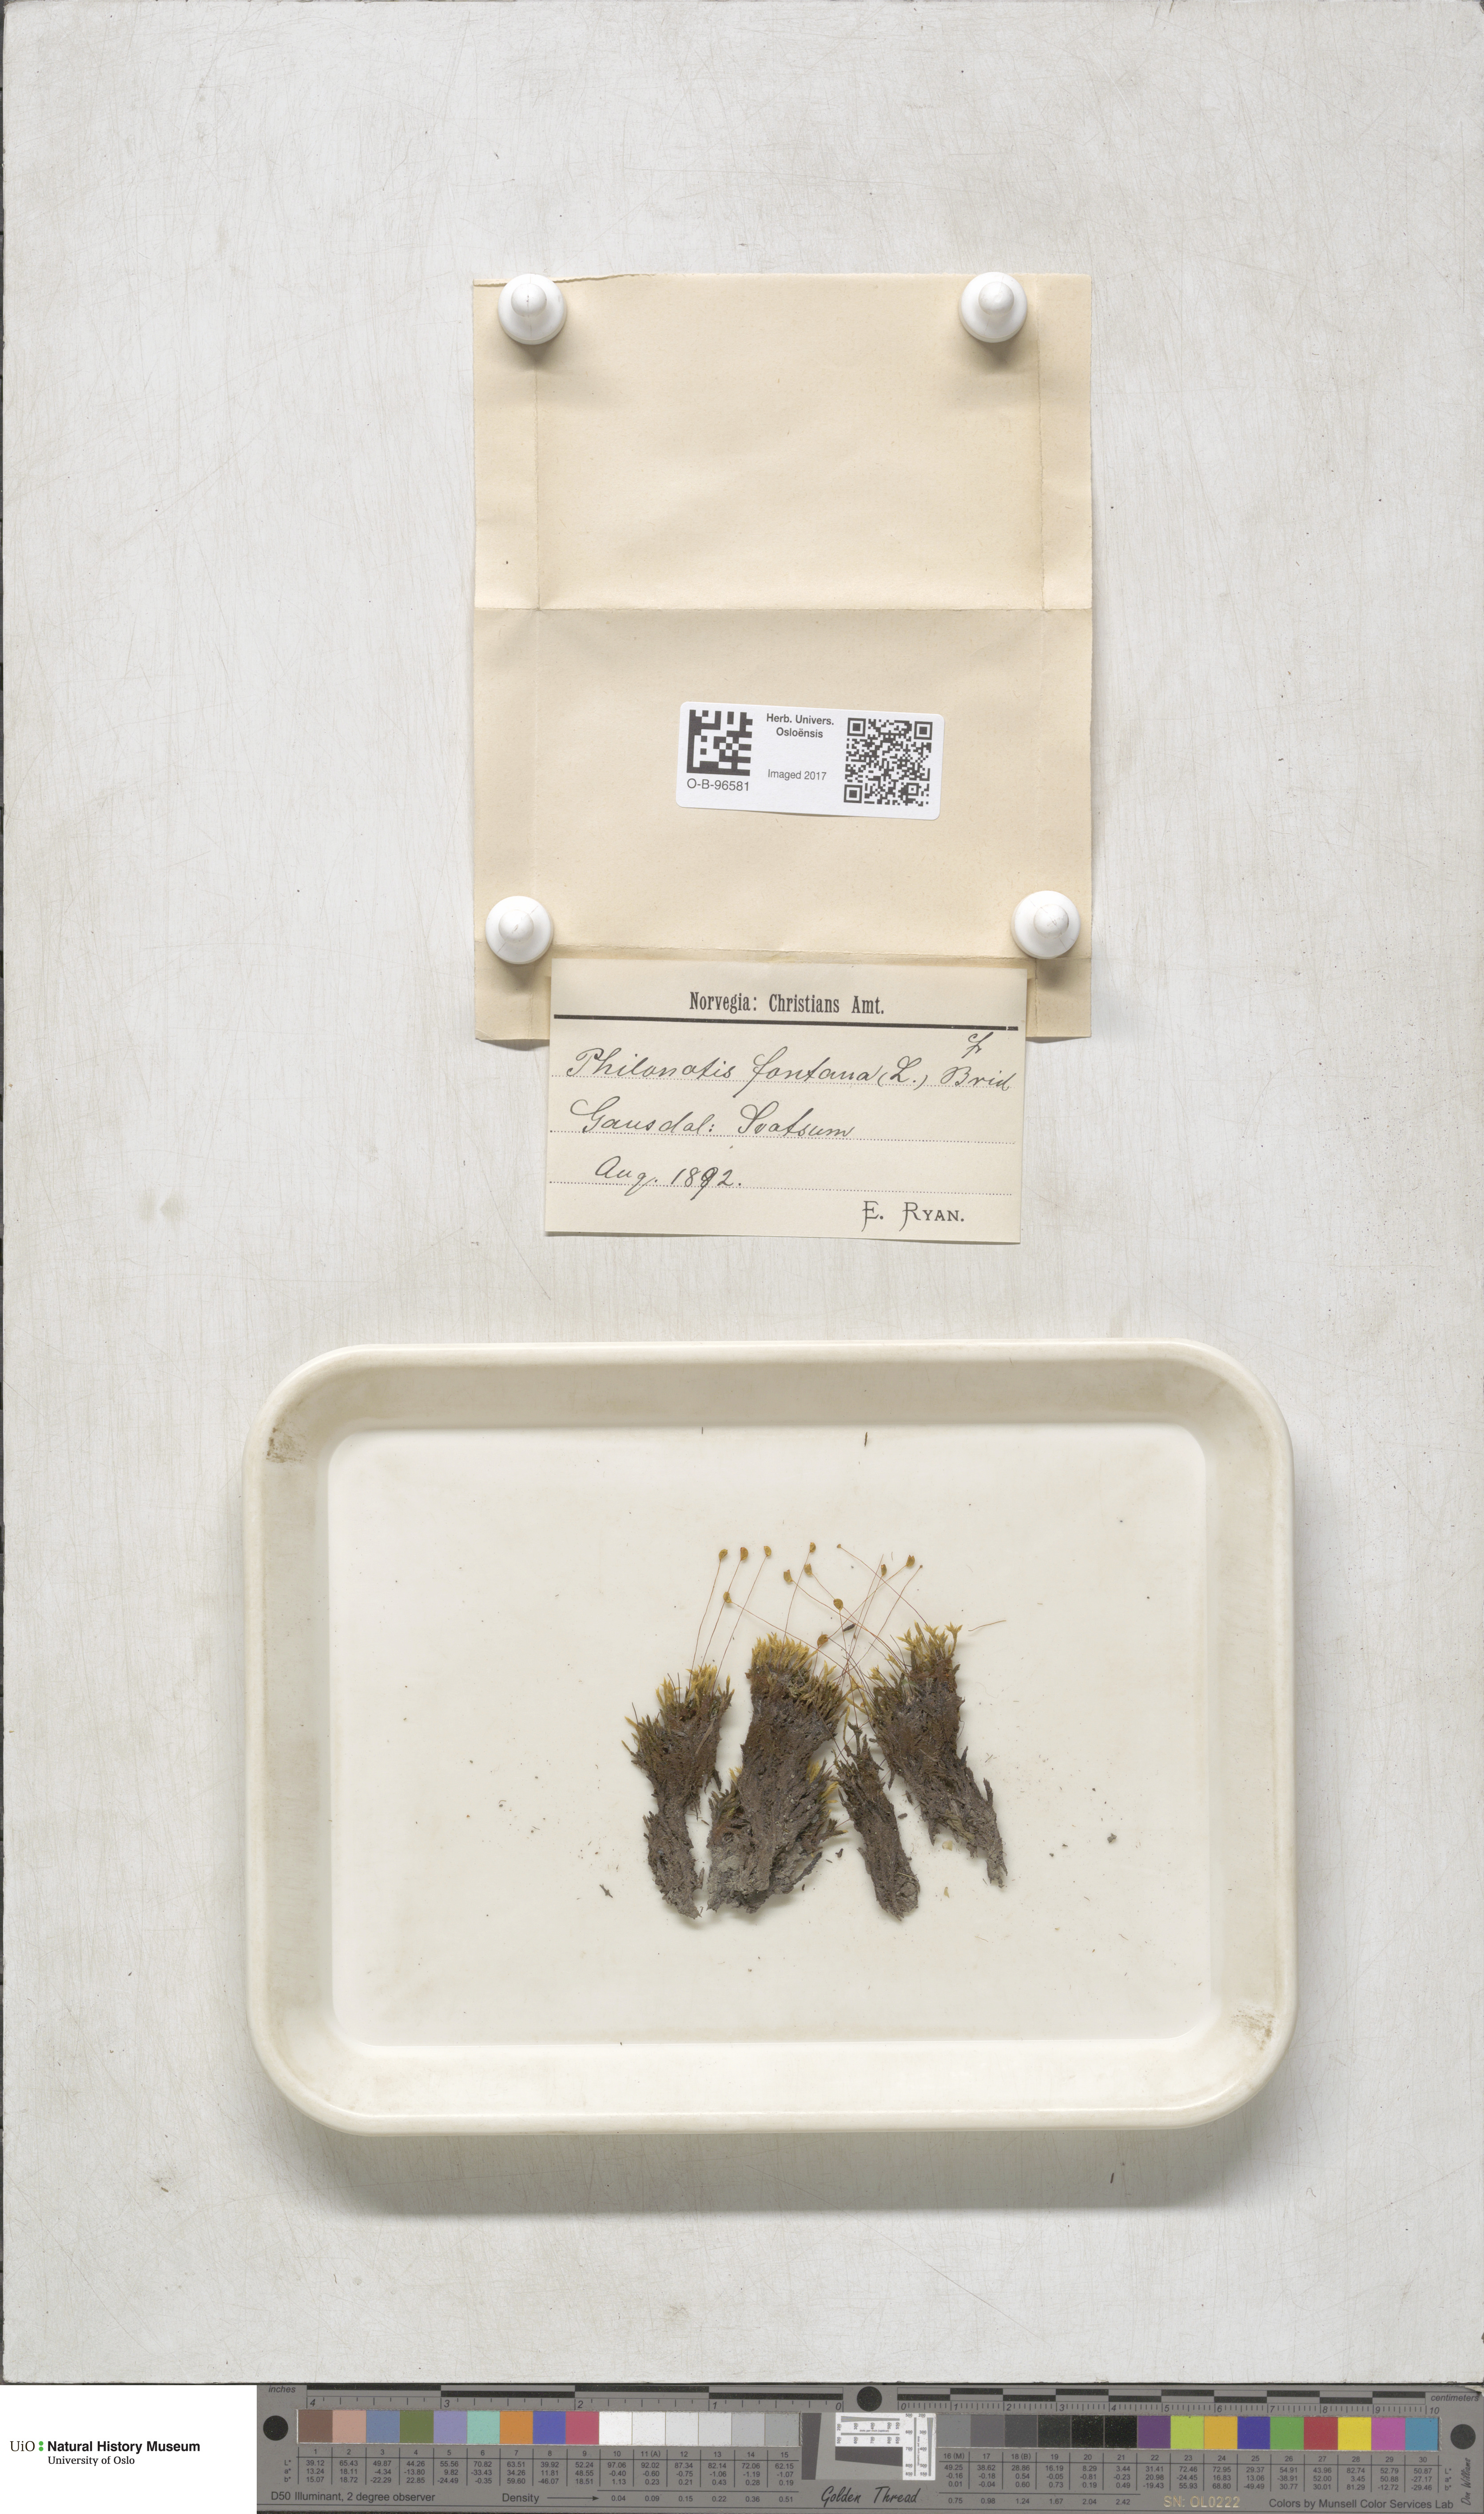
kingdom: Plantae
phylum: Bryophyta
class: Bryopsida
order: Bartramiales
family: Bartramiaceae
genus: Philonotis
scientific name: Philonotis fontana
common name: Fountain apple-moss
